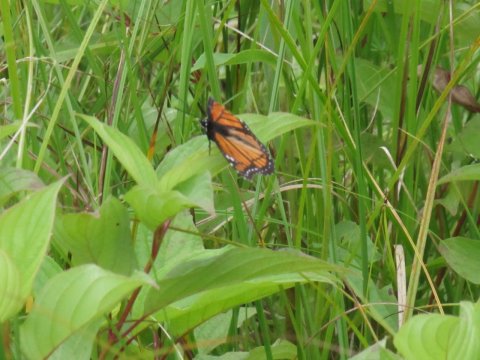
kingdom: Animalia
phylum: Arthropoda
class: Insecta
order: Lepidoptera
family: Nymphalidae
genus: Limenitis
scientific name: Limenitis archippus
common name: Viceroy
